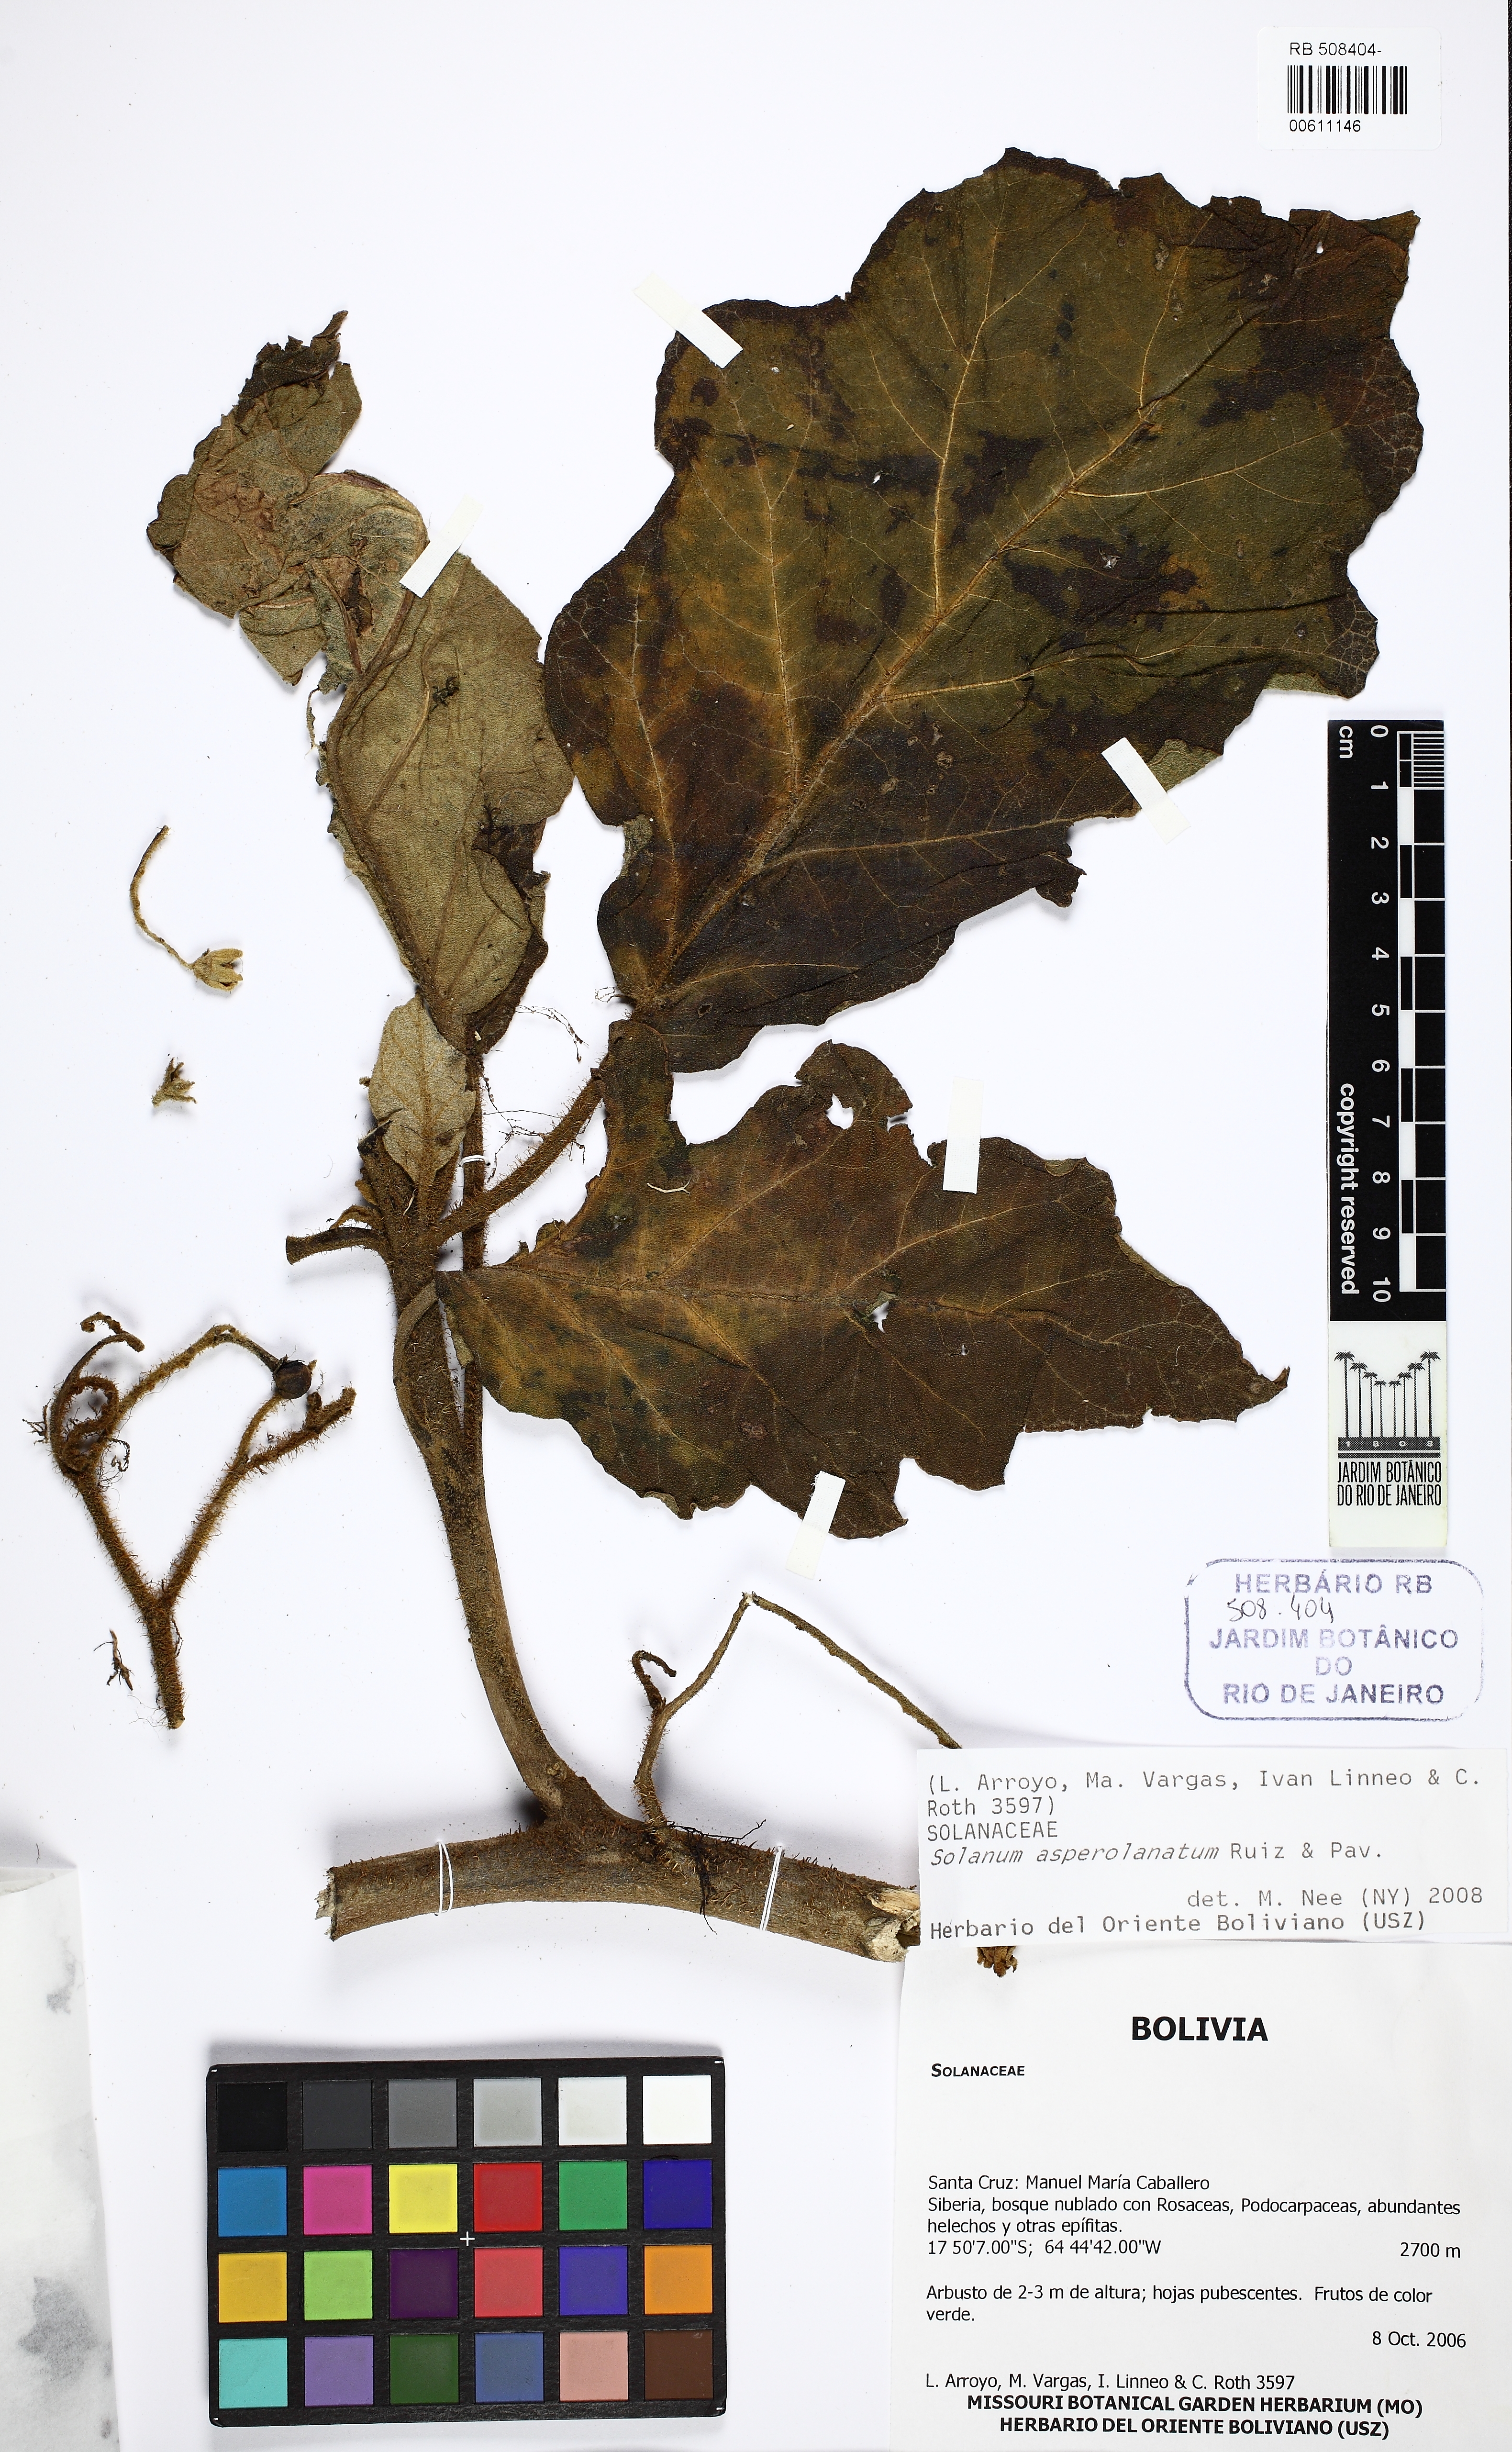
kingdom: Plantae
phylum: Tracheophyta
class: Magnoliopsida
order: Solanales
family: Solanaceae
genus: Solanum
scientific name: Solanum asperolanatum
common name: Devil's-fig
